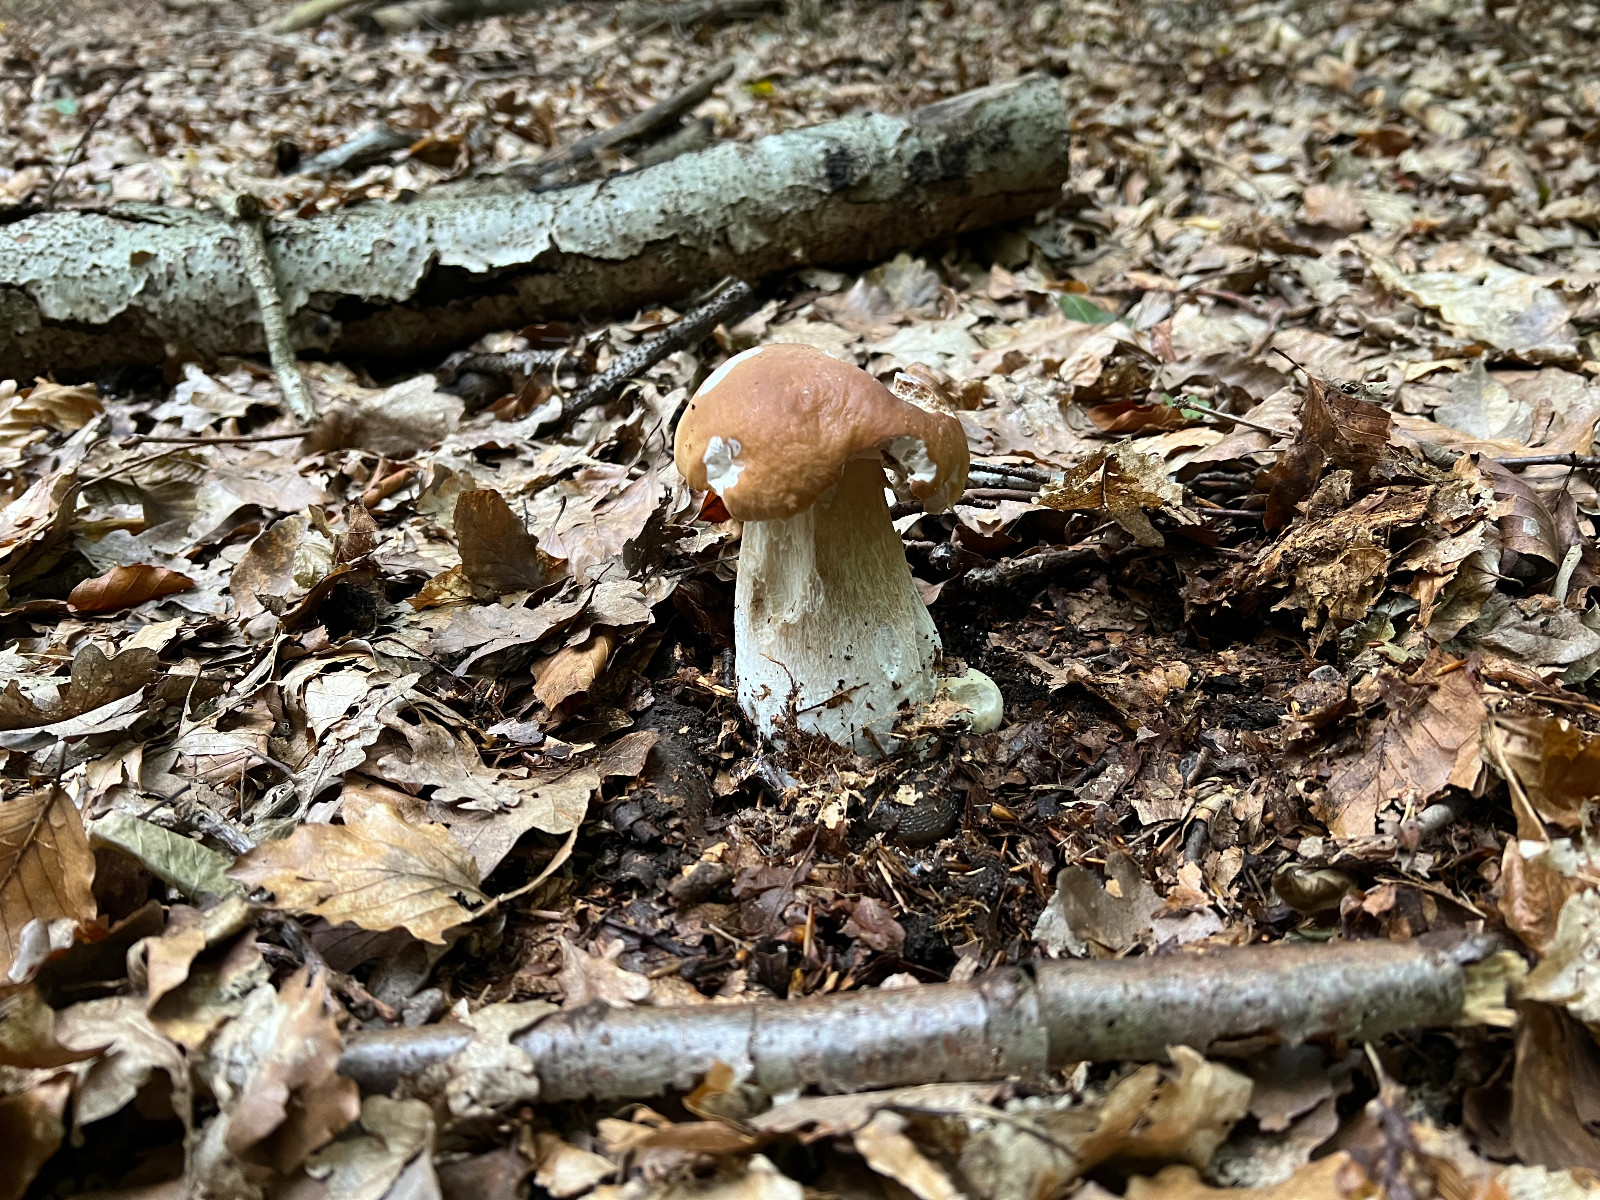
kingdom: Fungi
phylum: Basidiomycota
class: Agaricomycetes
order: Boletales
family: Boletaceae
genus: Boletus
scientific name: Boletus edulis
